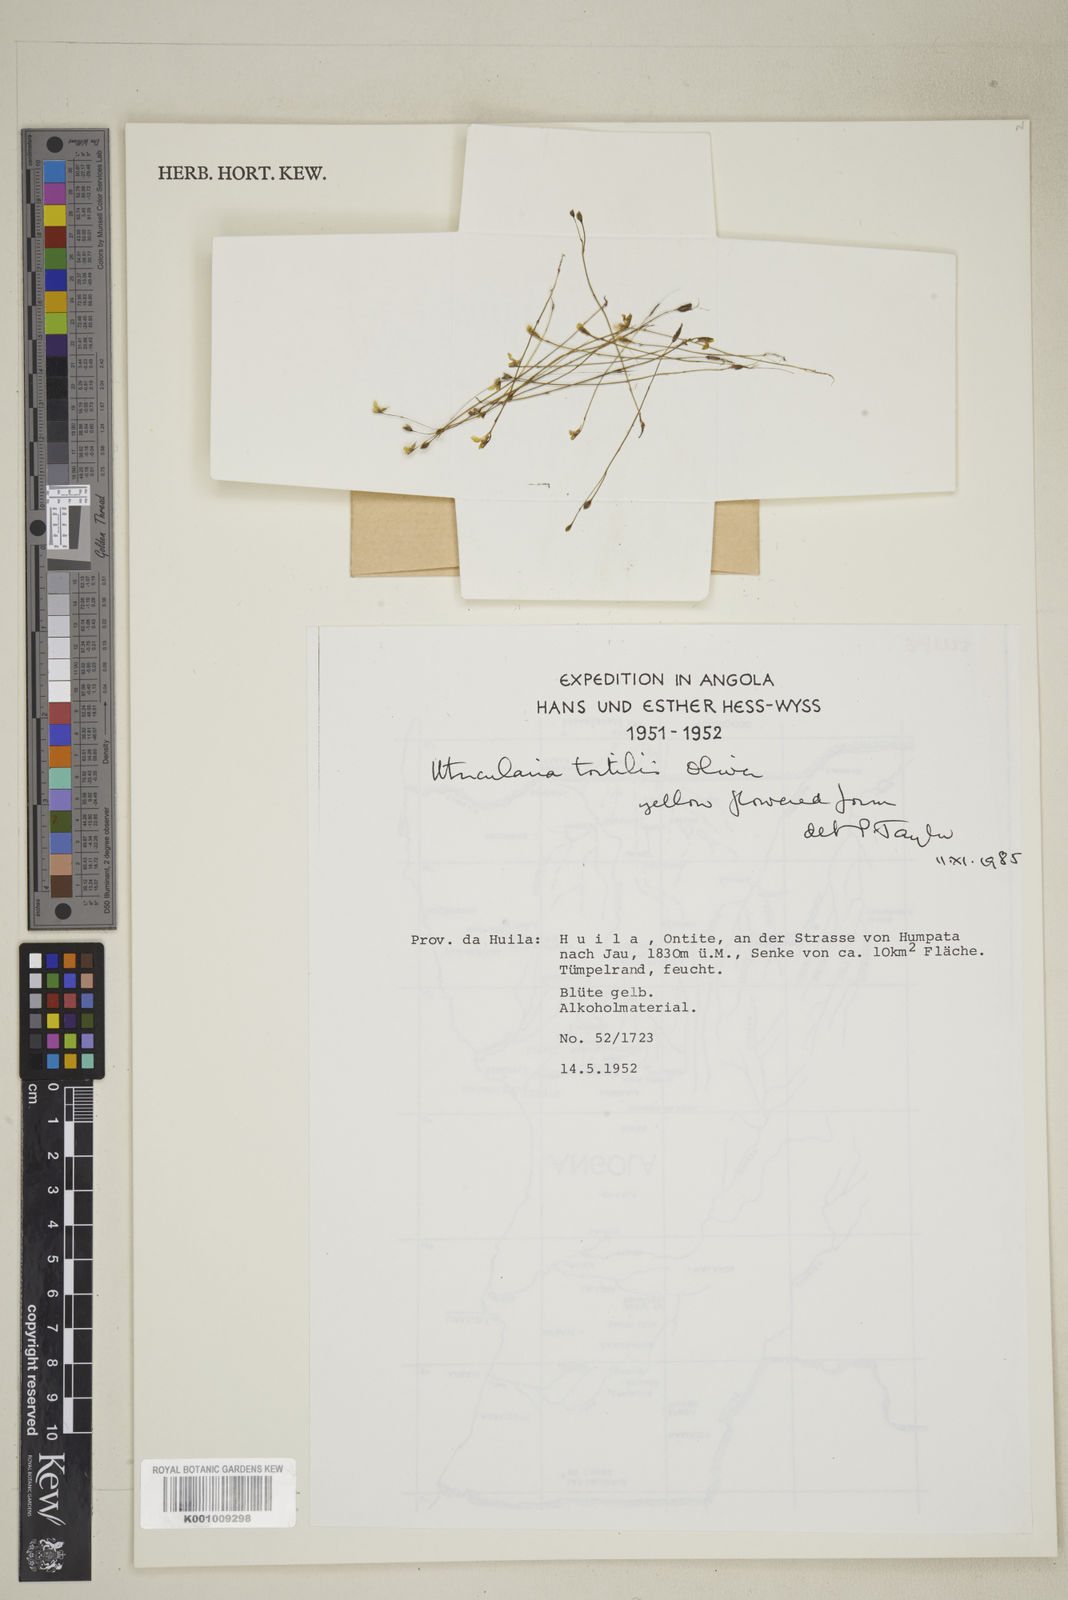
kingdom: Plantae
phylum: Tracheophyta
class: Magnoliopsida
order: Lamiales
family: Lentibulariaceae
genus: Utricularia
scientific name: Utricularia tortilis
